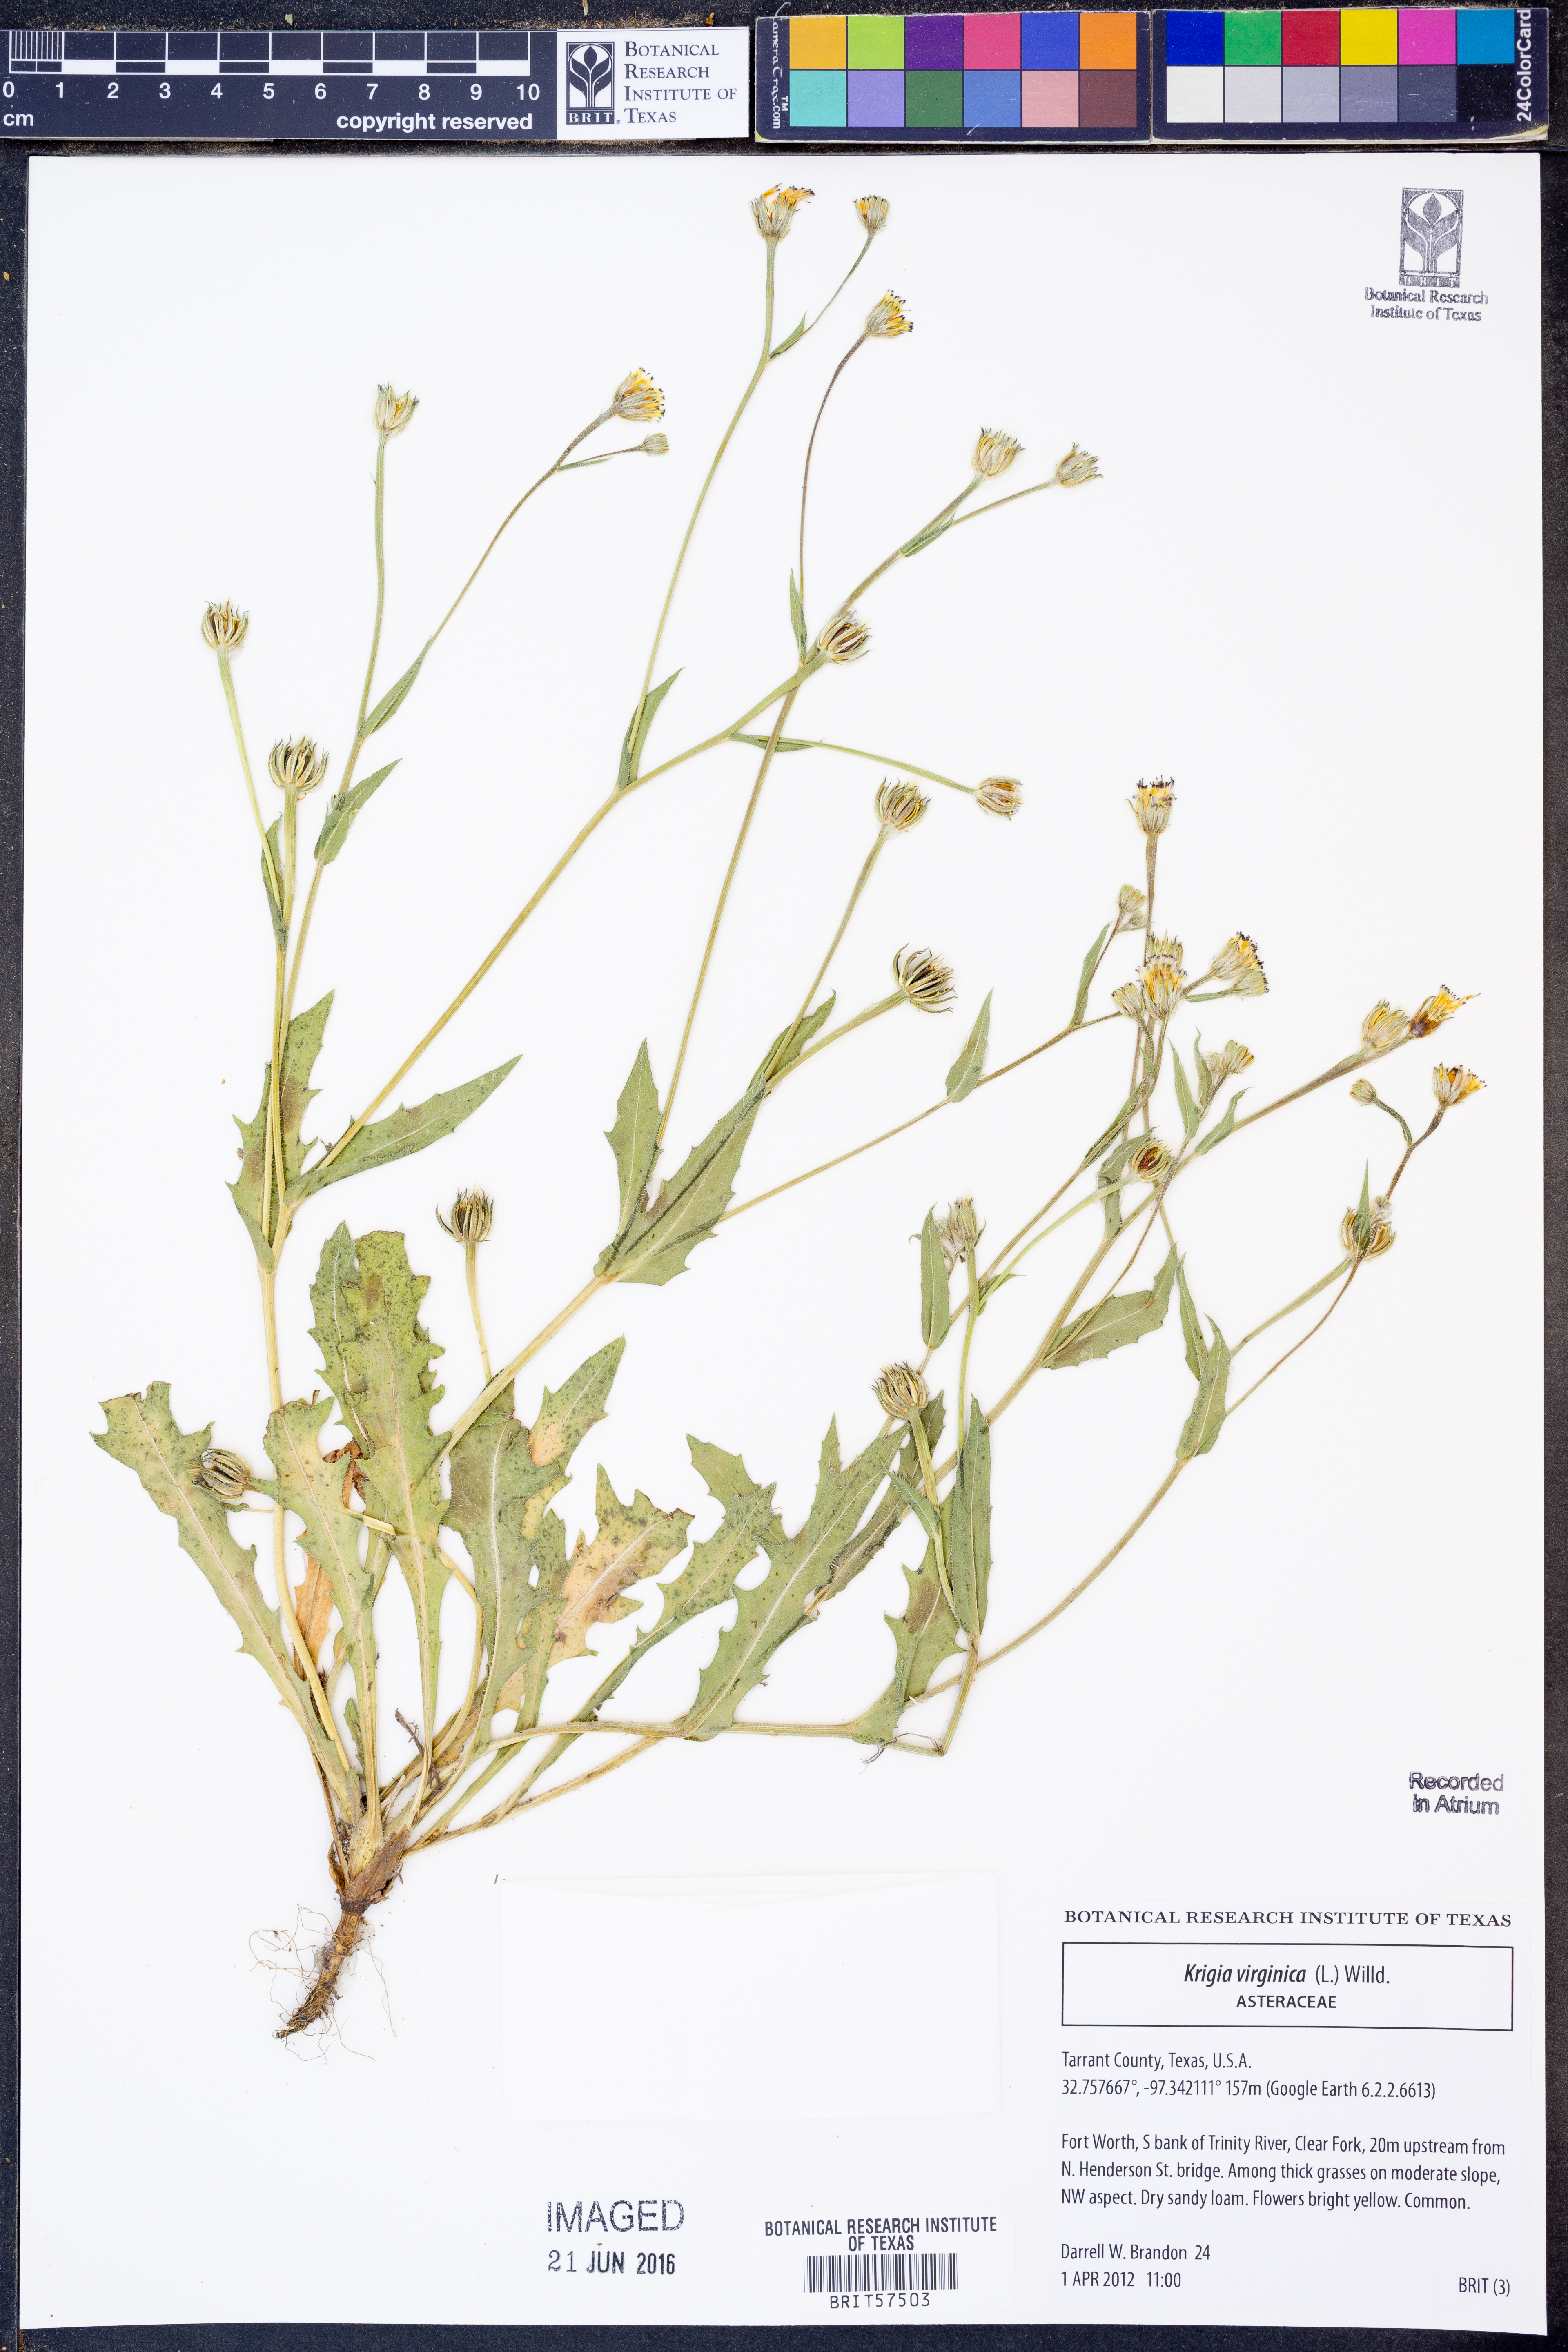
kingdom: Plantae
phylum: Tracheophyta
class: Magnoliopsida
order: Asterales
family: Asteraceae
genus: Krigia
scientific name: Krigia virginica
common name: Virginia dwarf-dandelion
